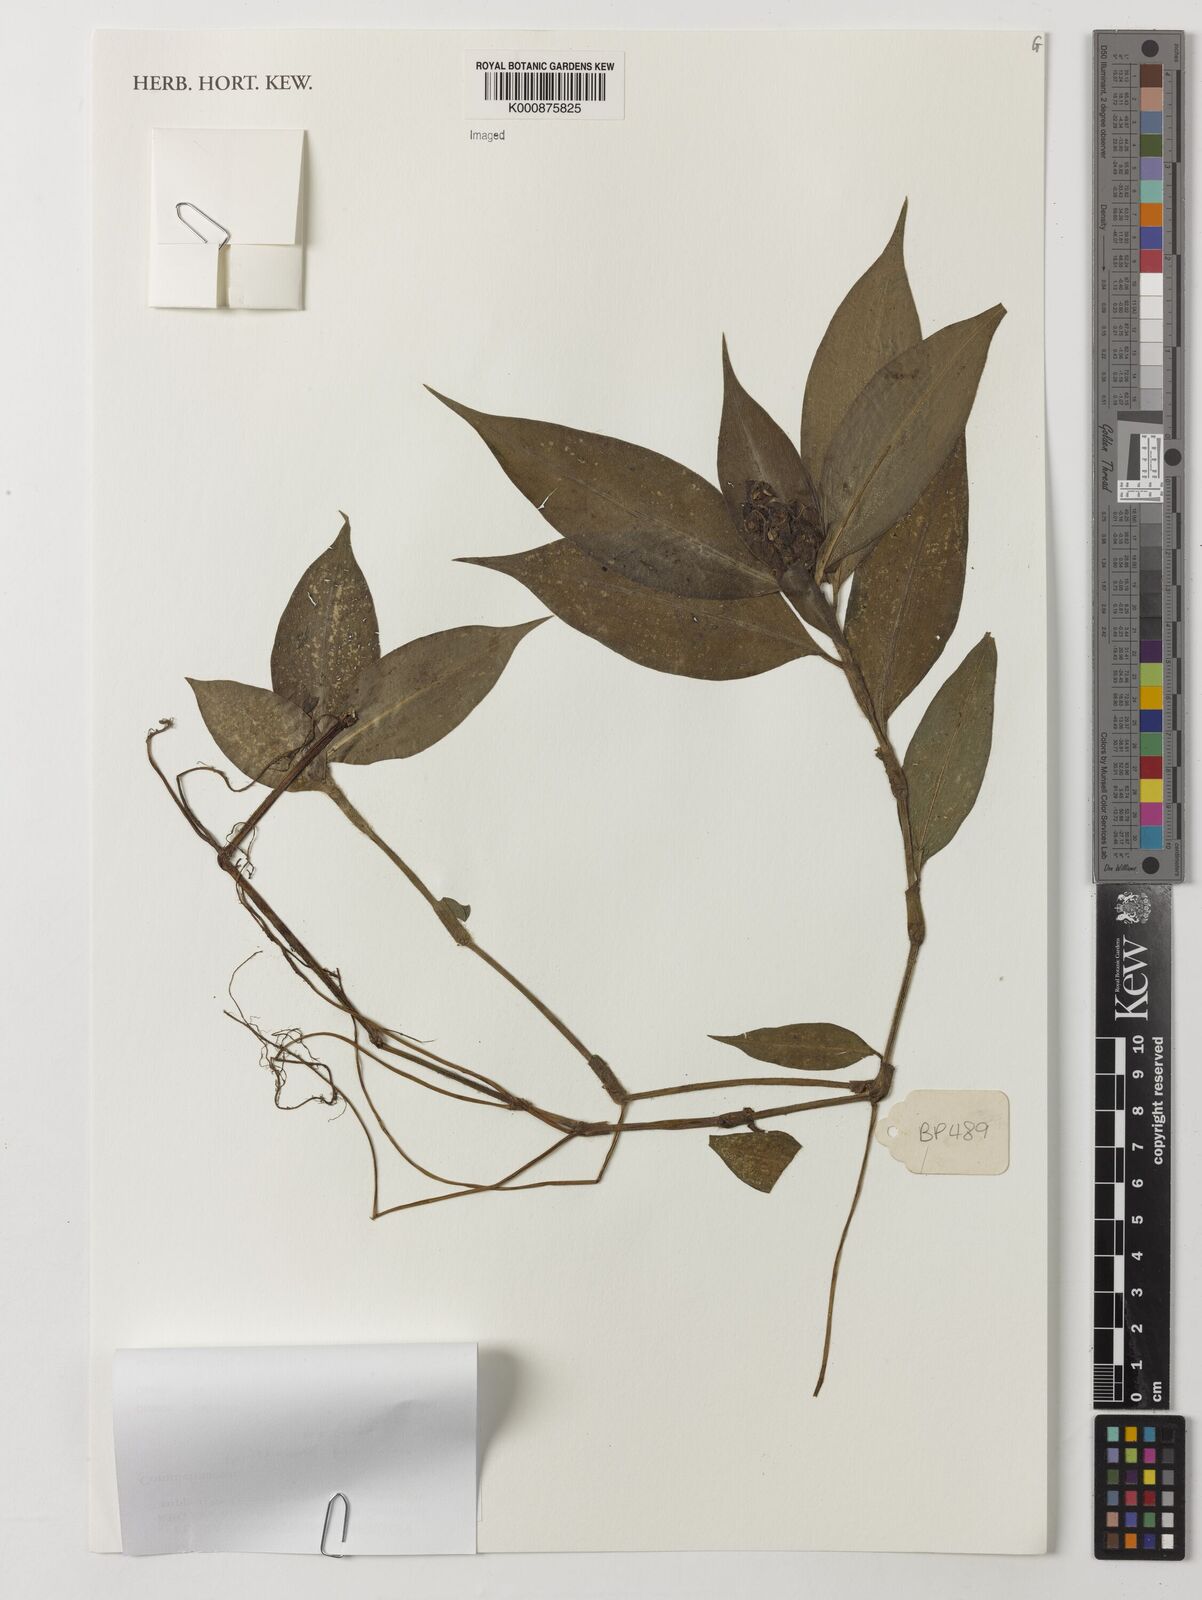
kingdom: Plantae
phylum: Tracheophyta
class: Liliopsida
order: Commelinales
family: Commelinaceae
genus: Polyspatha
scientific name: Polyspatha paniculata
